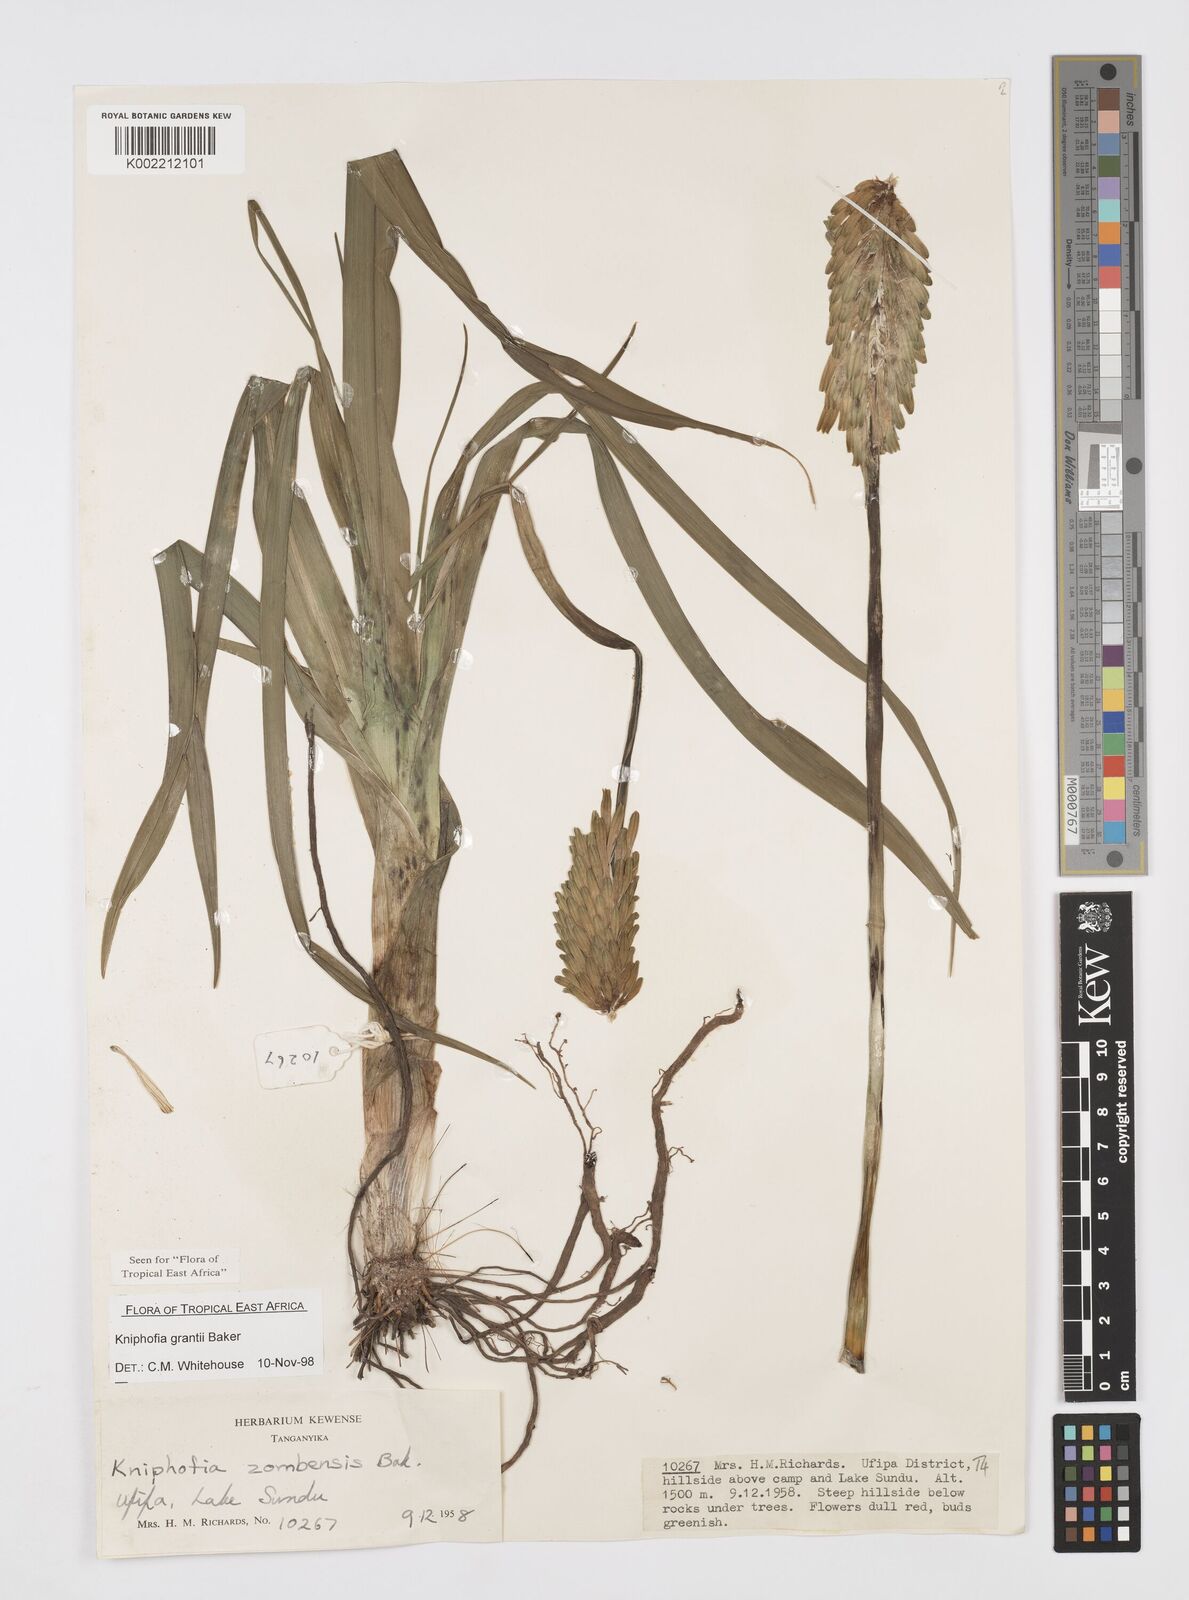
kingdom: Plantae
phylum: Tracheophyta
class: Liliopsida
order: Asparagales
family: Asphodelaceae
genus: Kniphofia
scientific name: Kniphofia grantii
